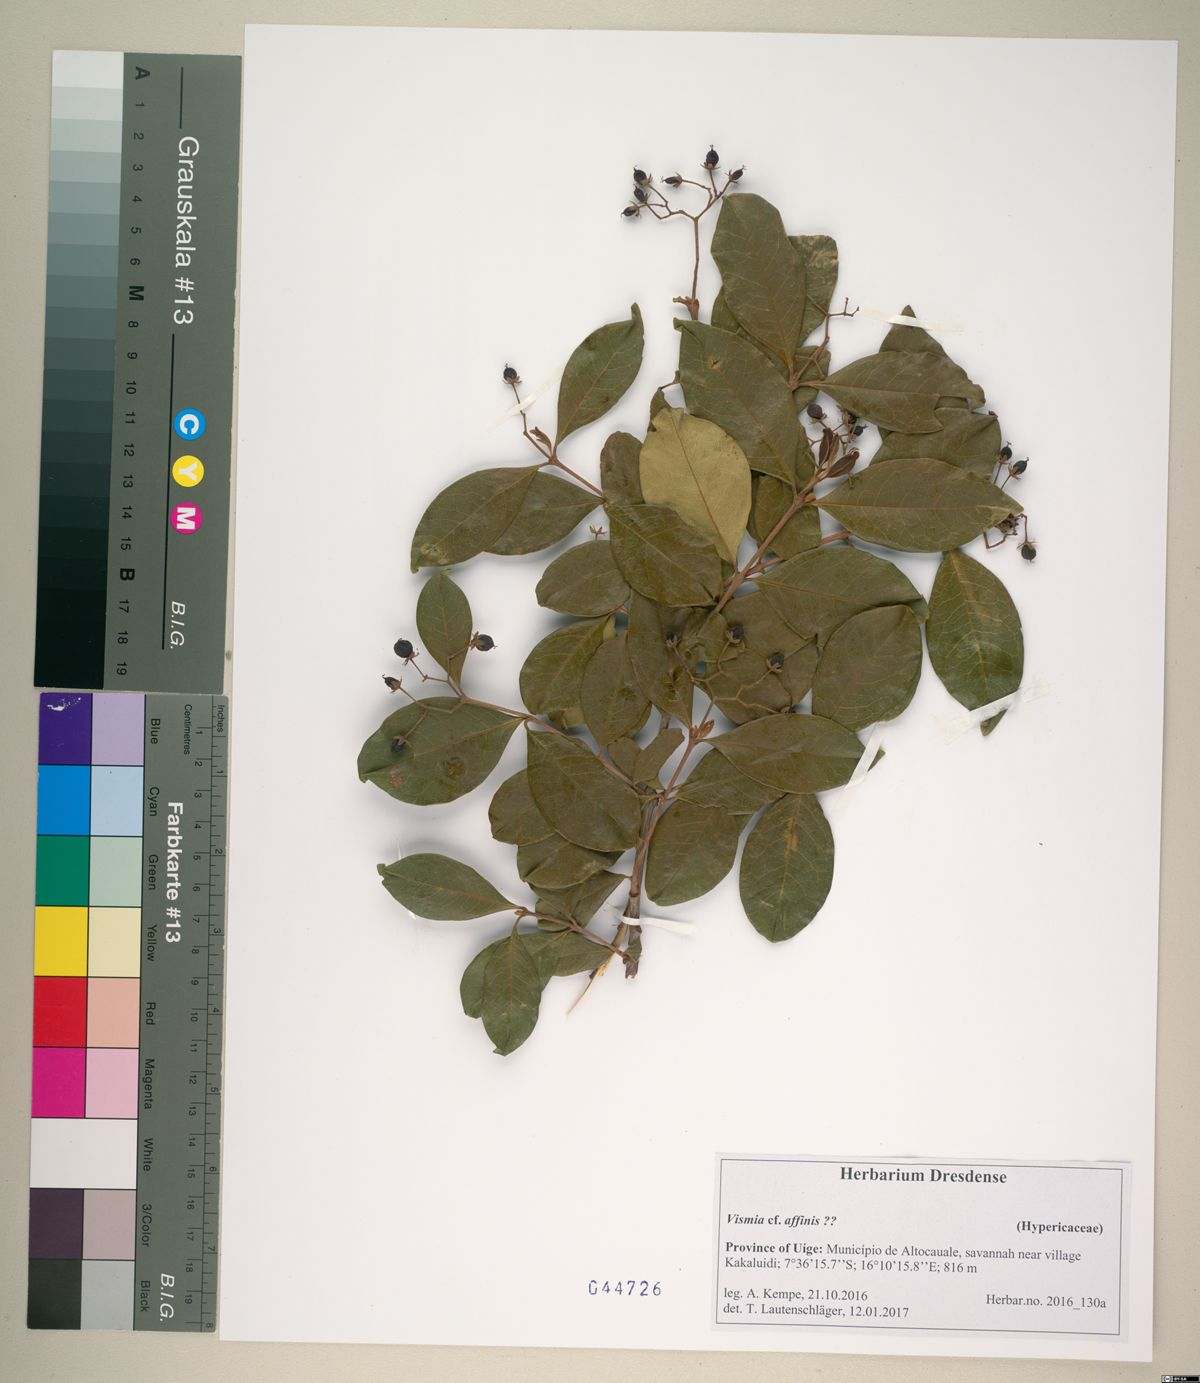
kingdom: Plantae
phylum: Tracheophyta
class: Magnoliopsida
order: Malpighiales
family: Hypericaceae
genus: Psorospermum
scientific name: Psorospermum affine
